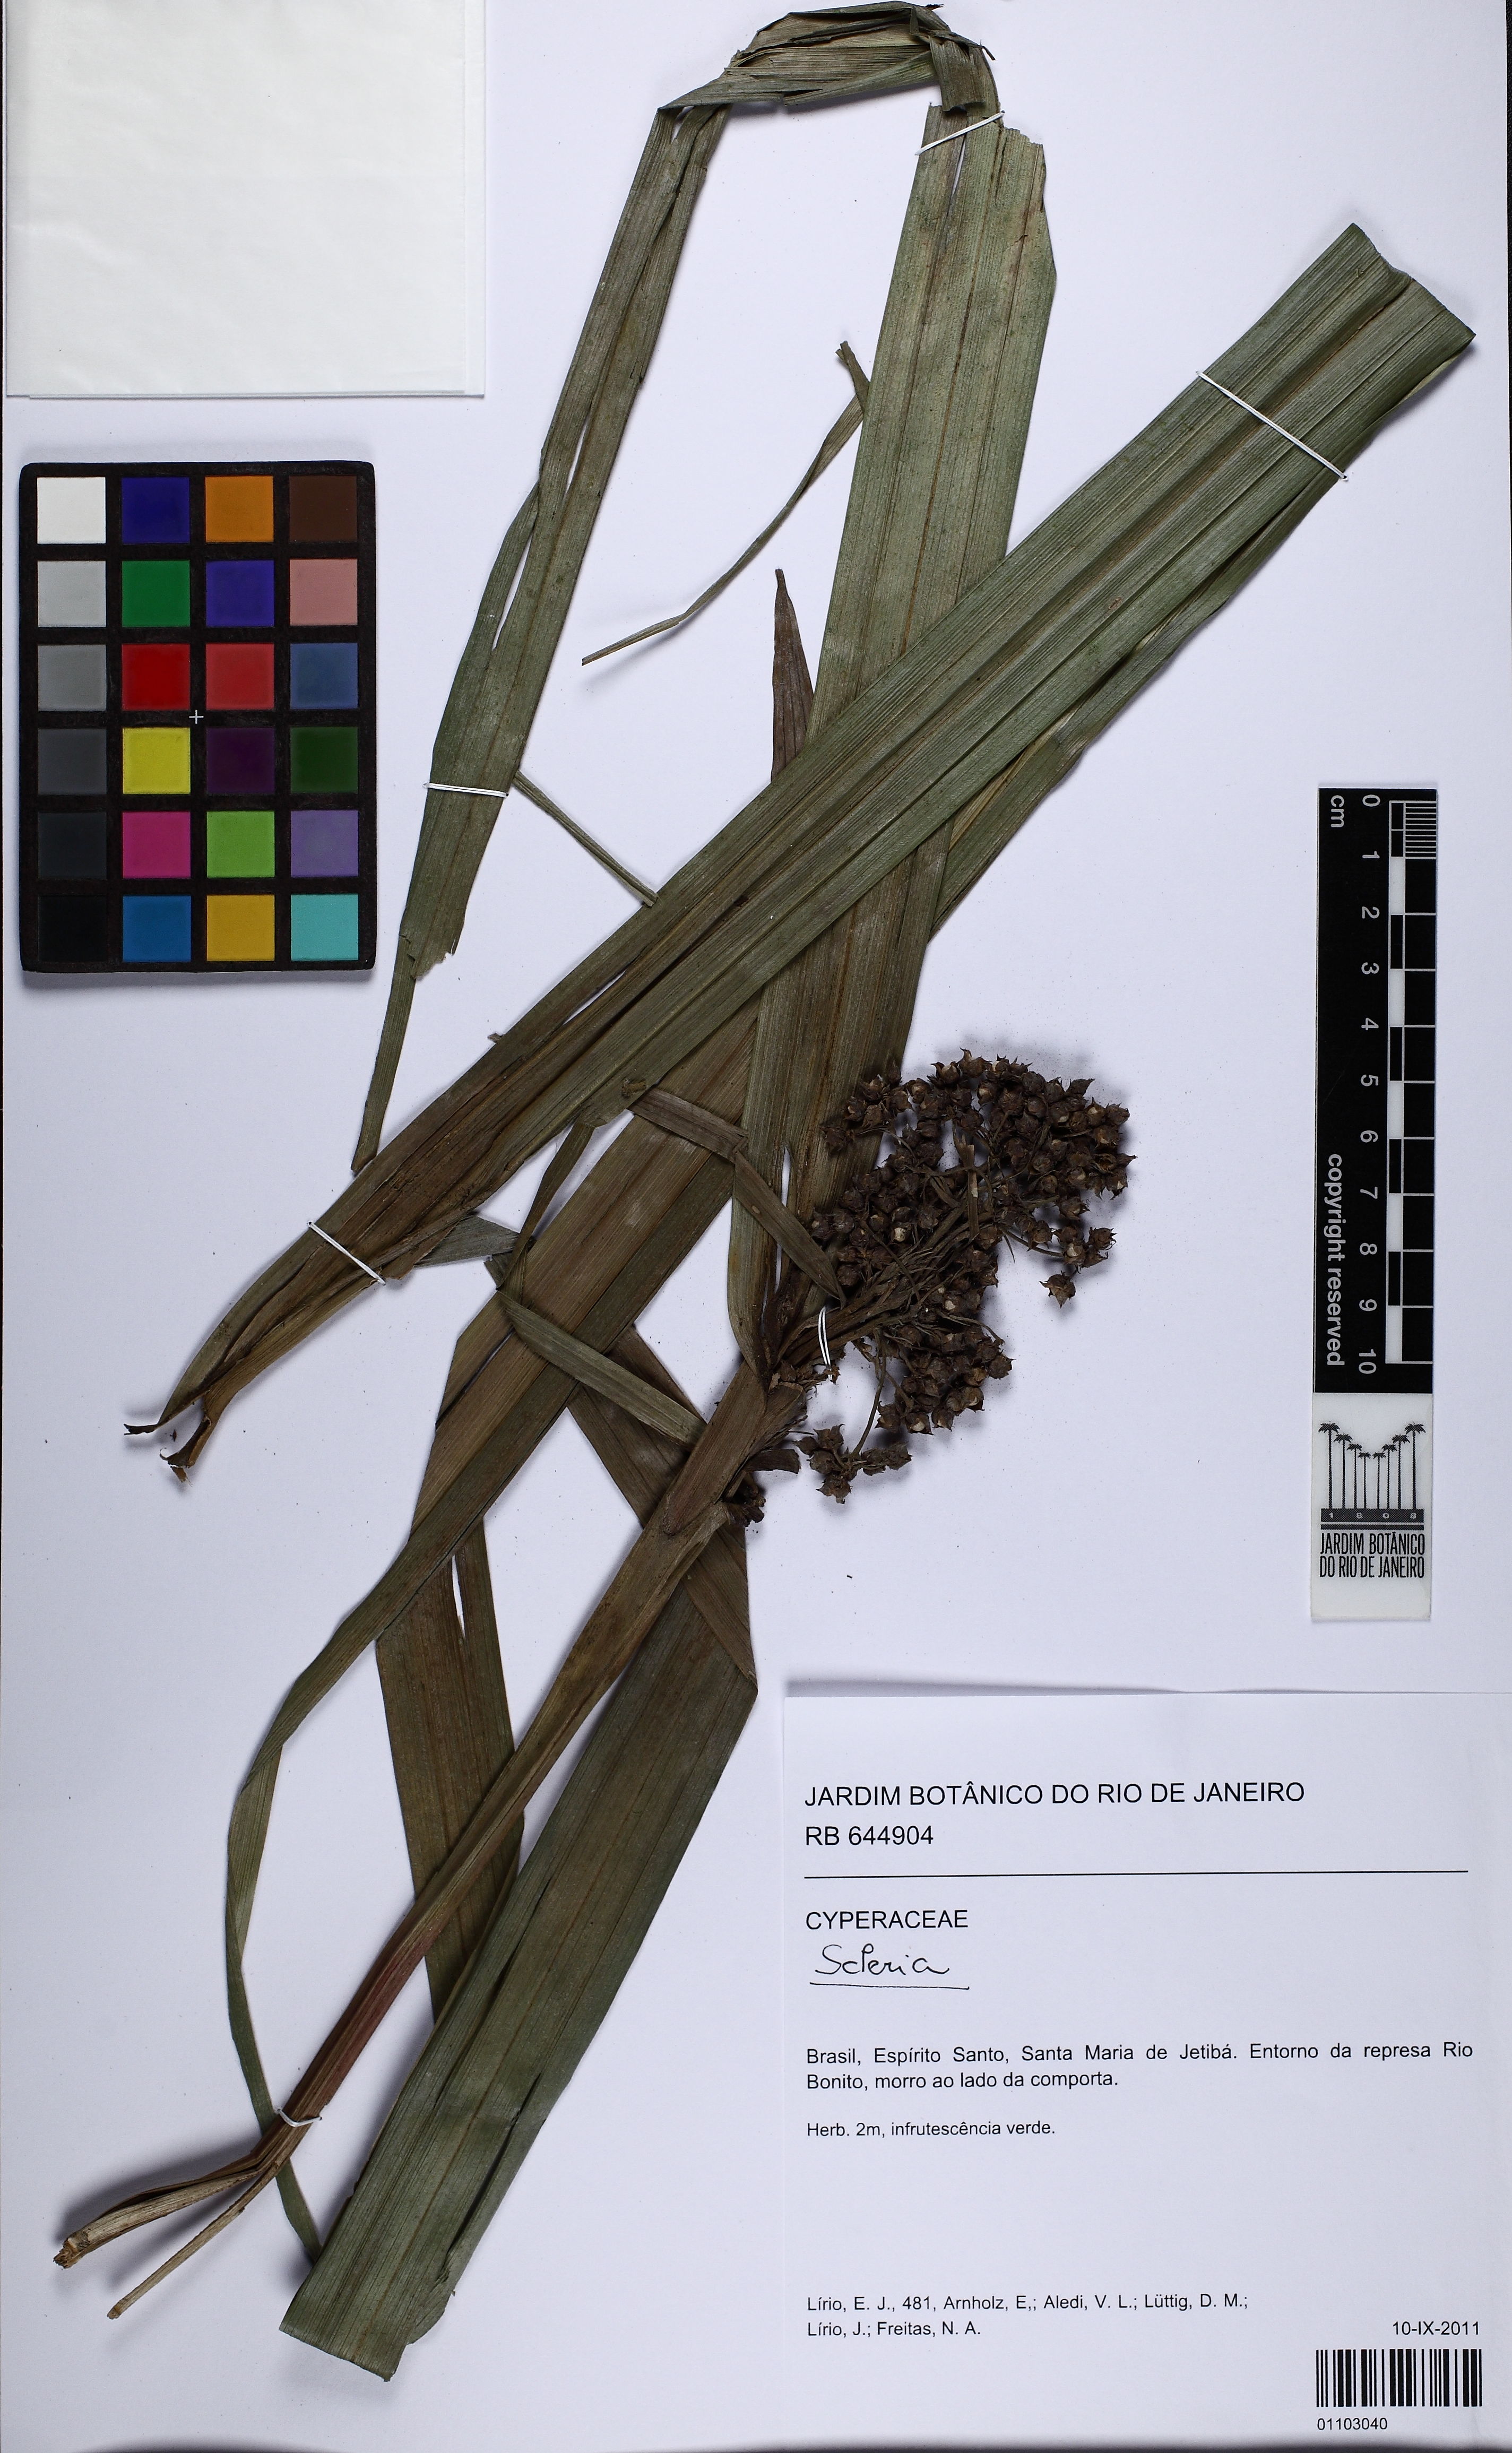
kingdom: Plantae
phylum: Tracheophyta
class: Liliopsida
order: Poales
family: Cyperaceae
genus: Scleria
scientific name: Scleria
